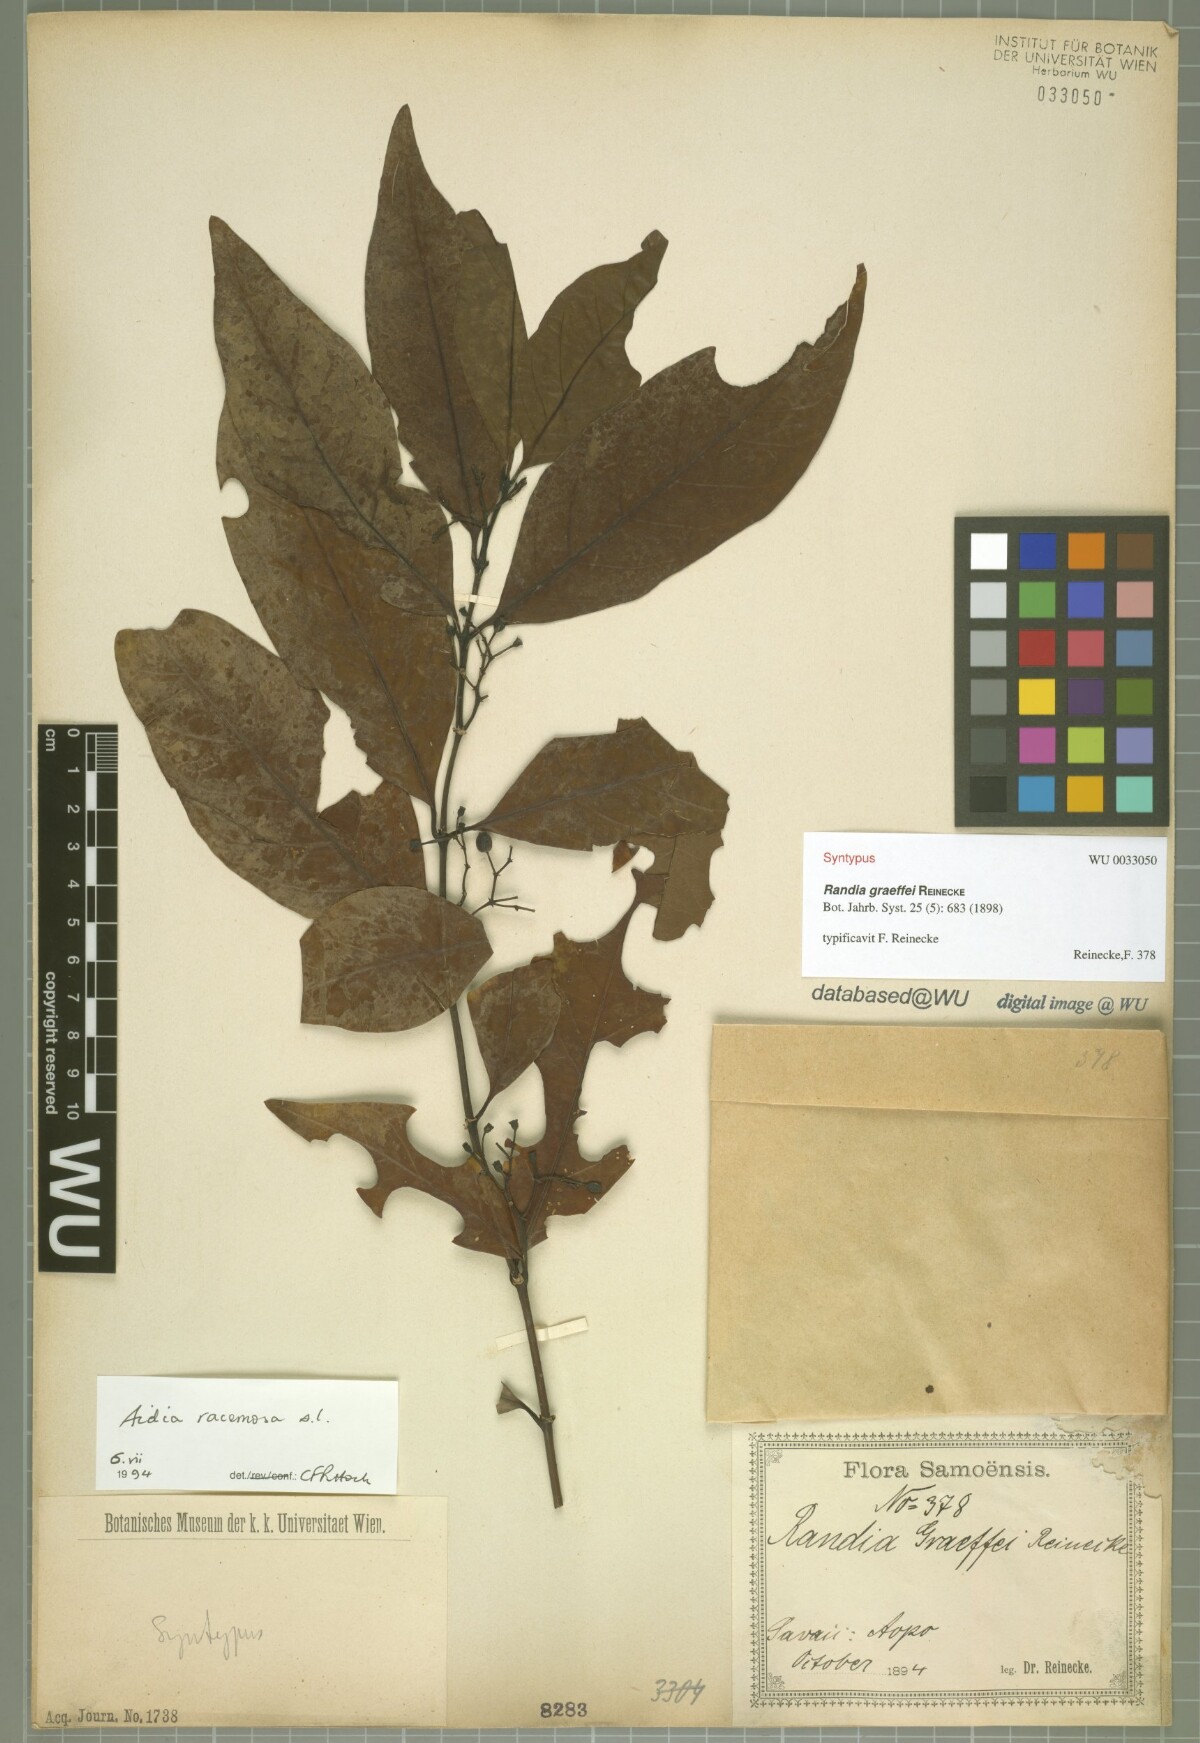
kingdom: Plantae
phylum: Tracheophyta
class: Magnoliopsida
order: Gentianales
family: Rubiaceae
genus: Aidia
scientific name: Aidia racemosa
